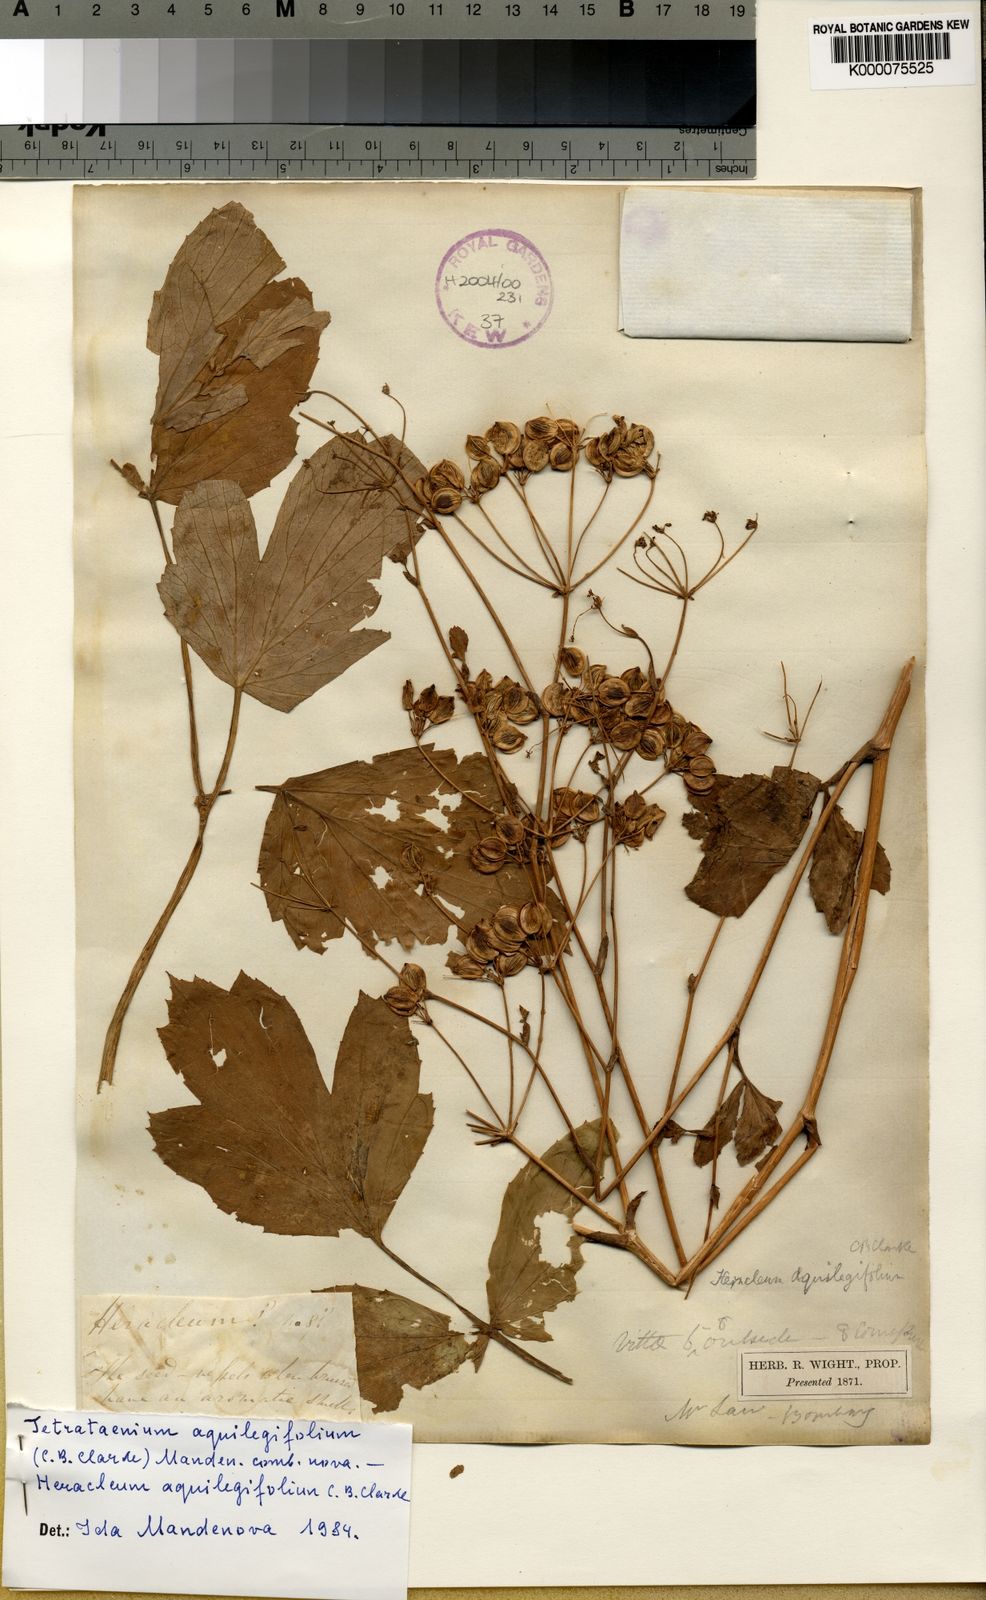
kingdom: Plantae
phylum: Tracheophyta
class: Magnoliopsida
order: Apiales
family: Apiaceae
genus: Tetrataenium
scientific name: Tetrataenium aquilegifolium
